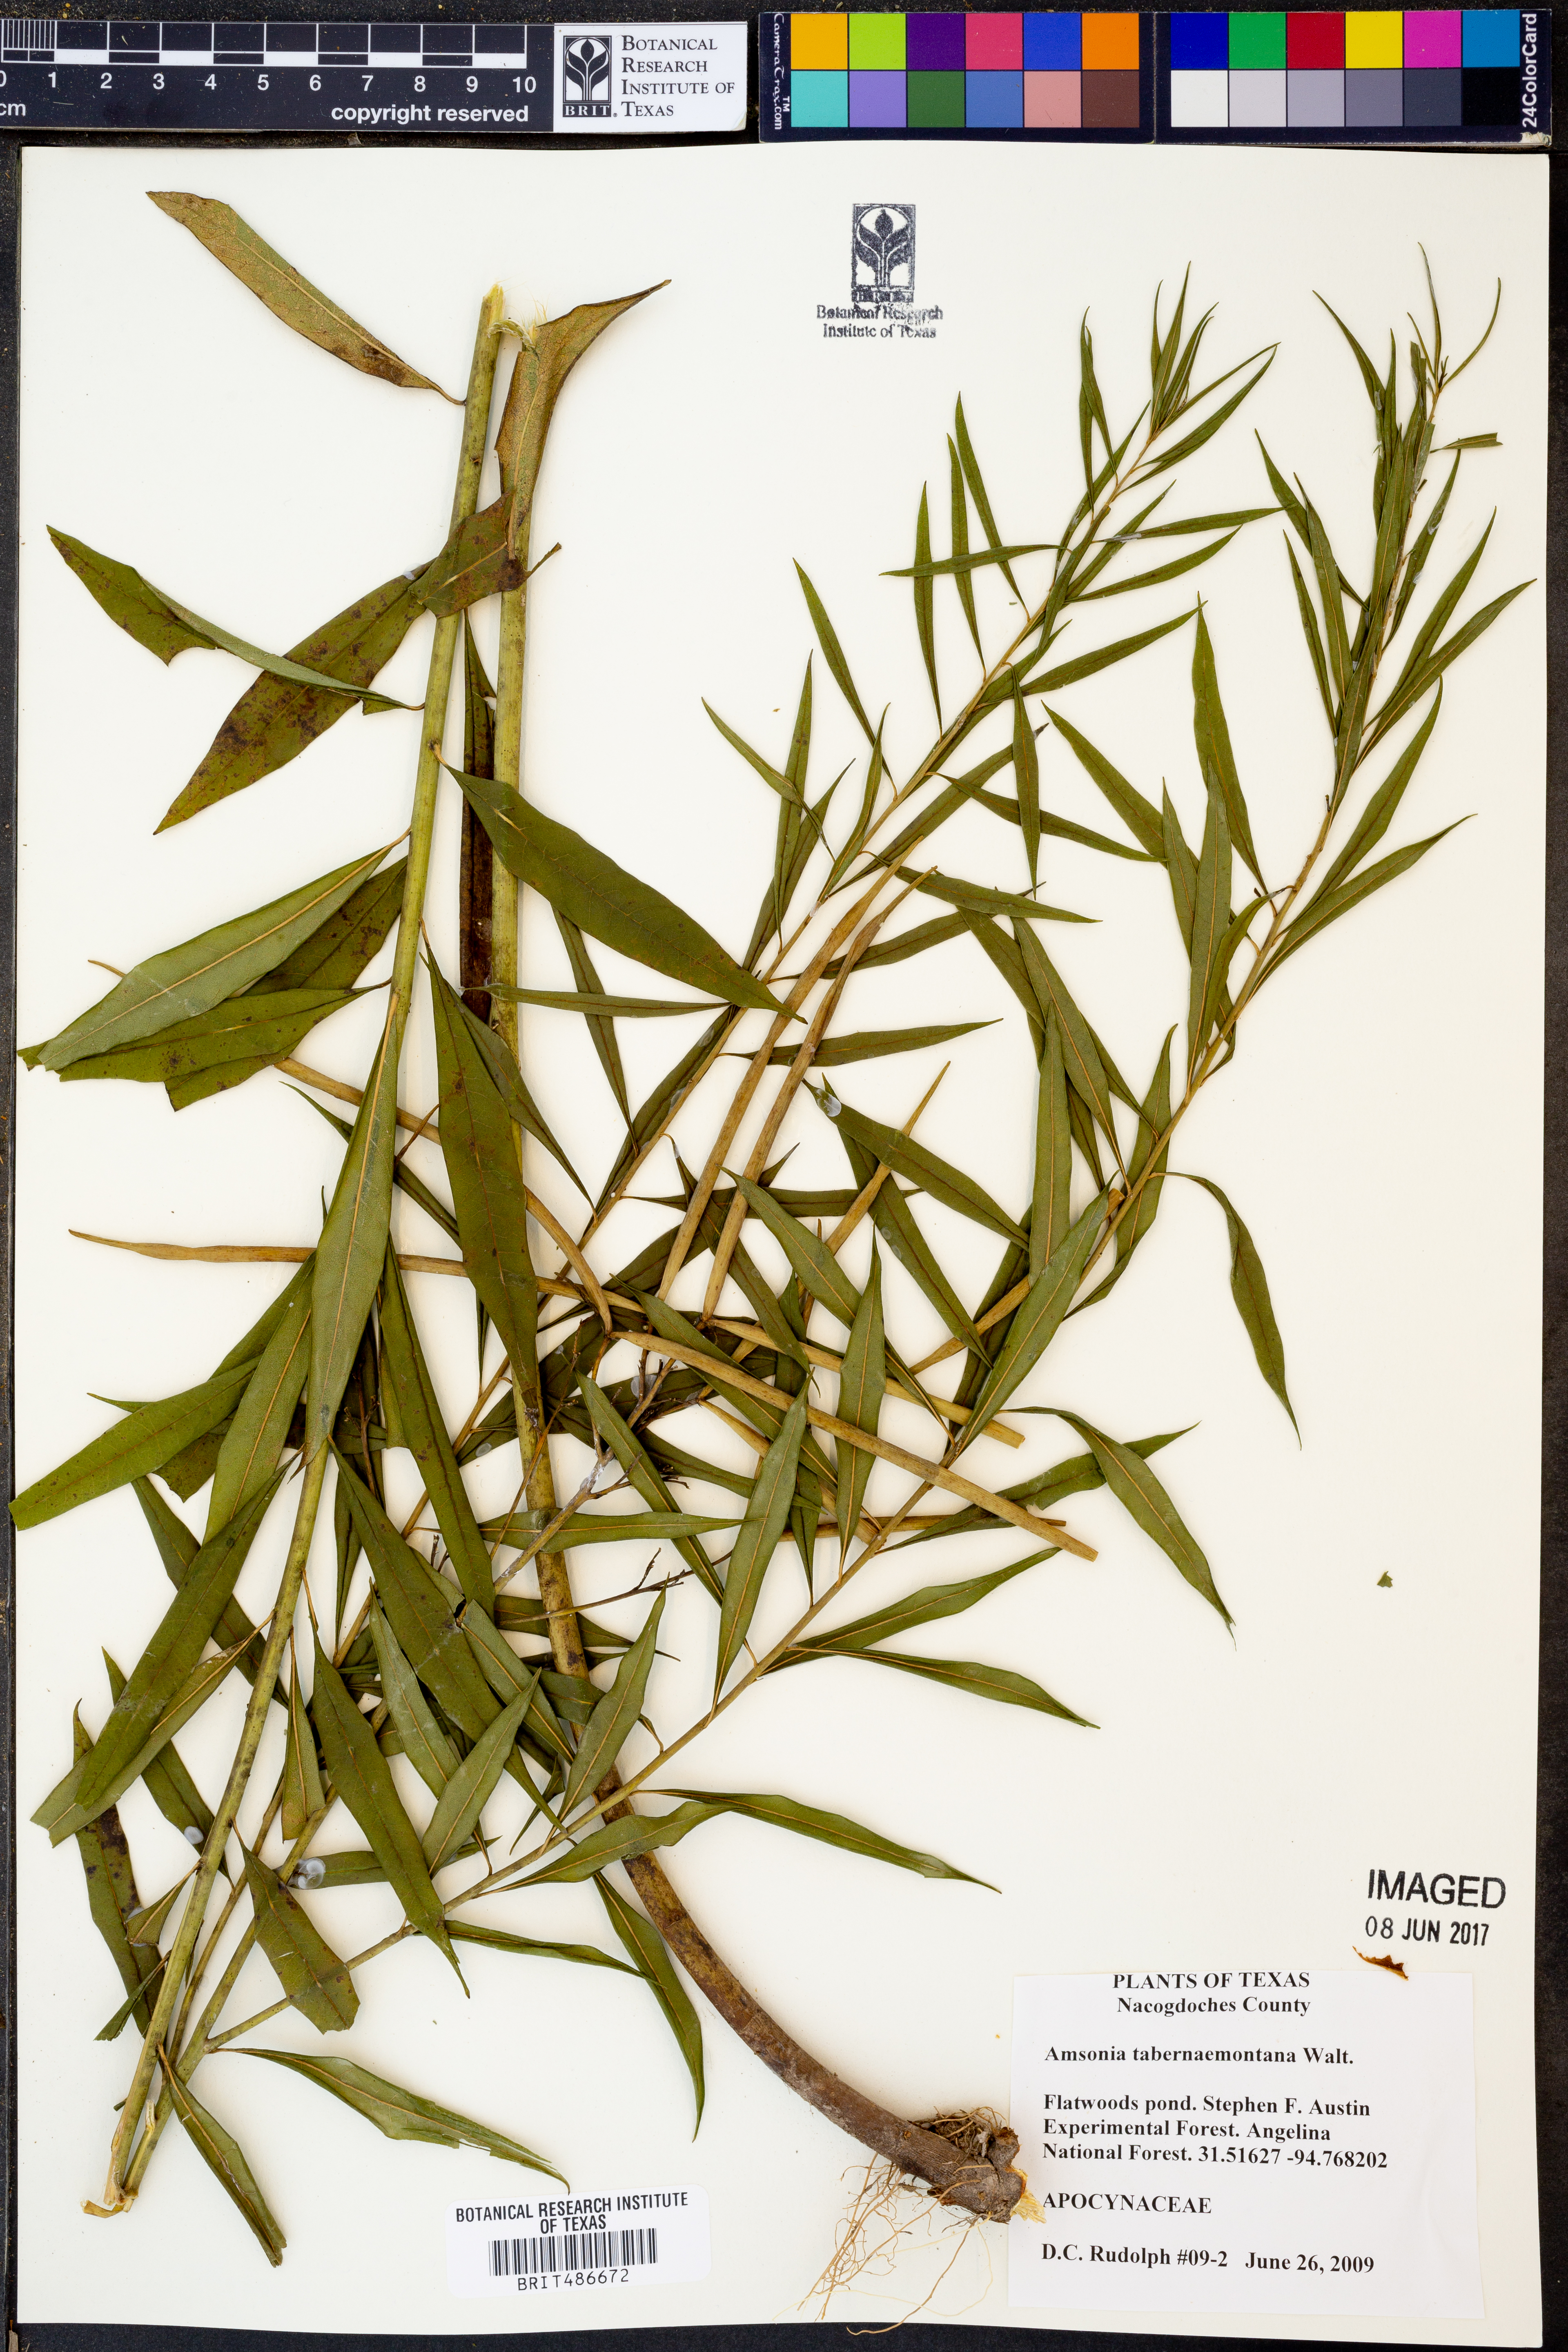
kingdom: Plantae
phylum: Tracheophyta
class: Magnoliopsida
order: Gentianales
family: Apocynaceae
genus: Amsonia
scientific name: Amsonia tabernaemontana
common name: Texas-star
